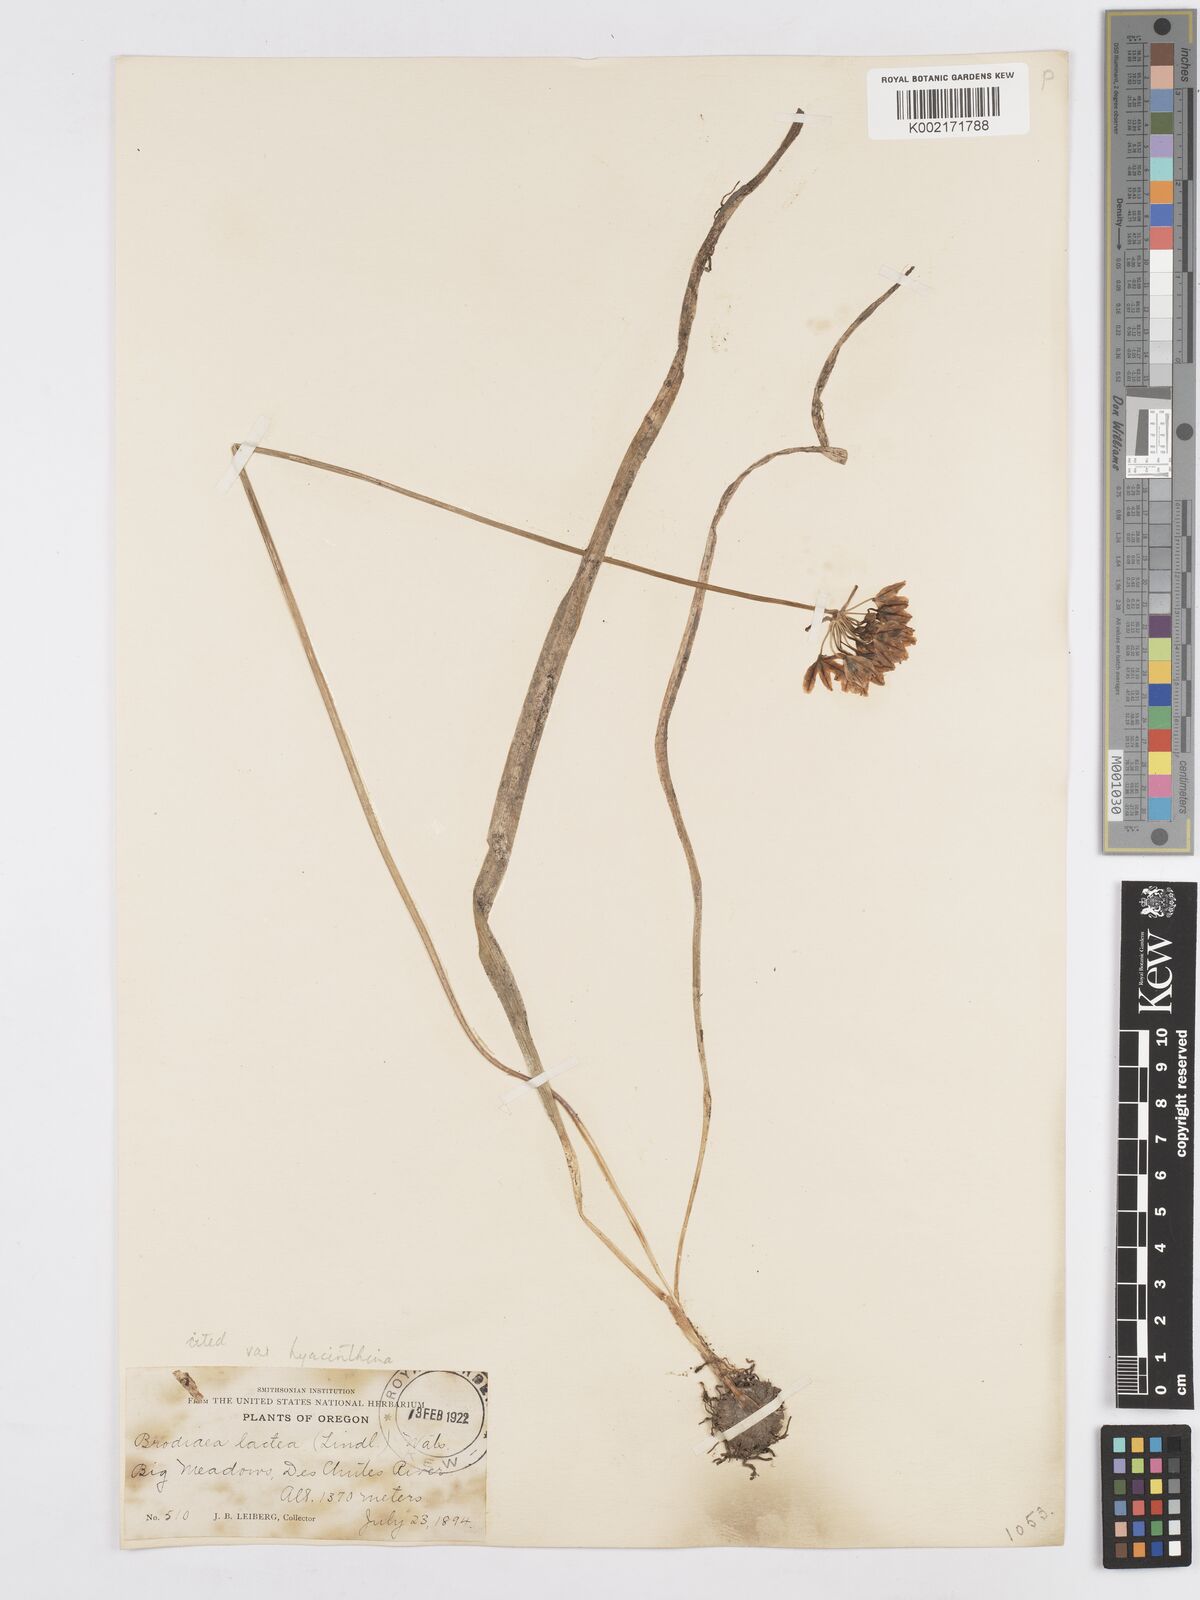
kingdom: Plantae
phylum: Tracheophyta
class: Liliopsida
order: Asparagales
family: Asparagaceae
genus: Triteleia
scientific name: Triteleia hyacinthina
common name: White brodiaea
